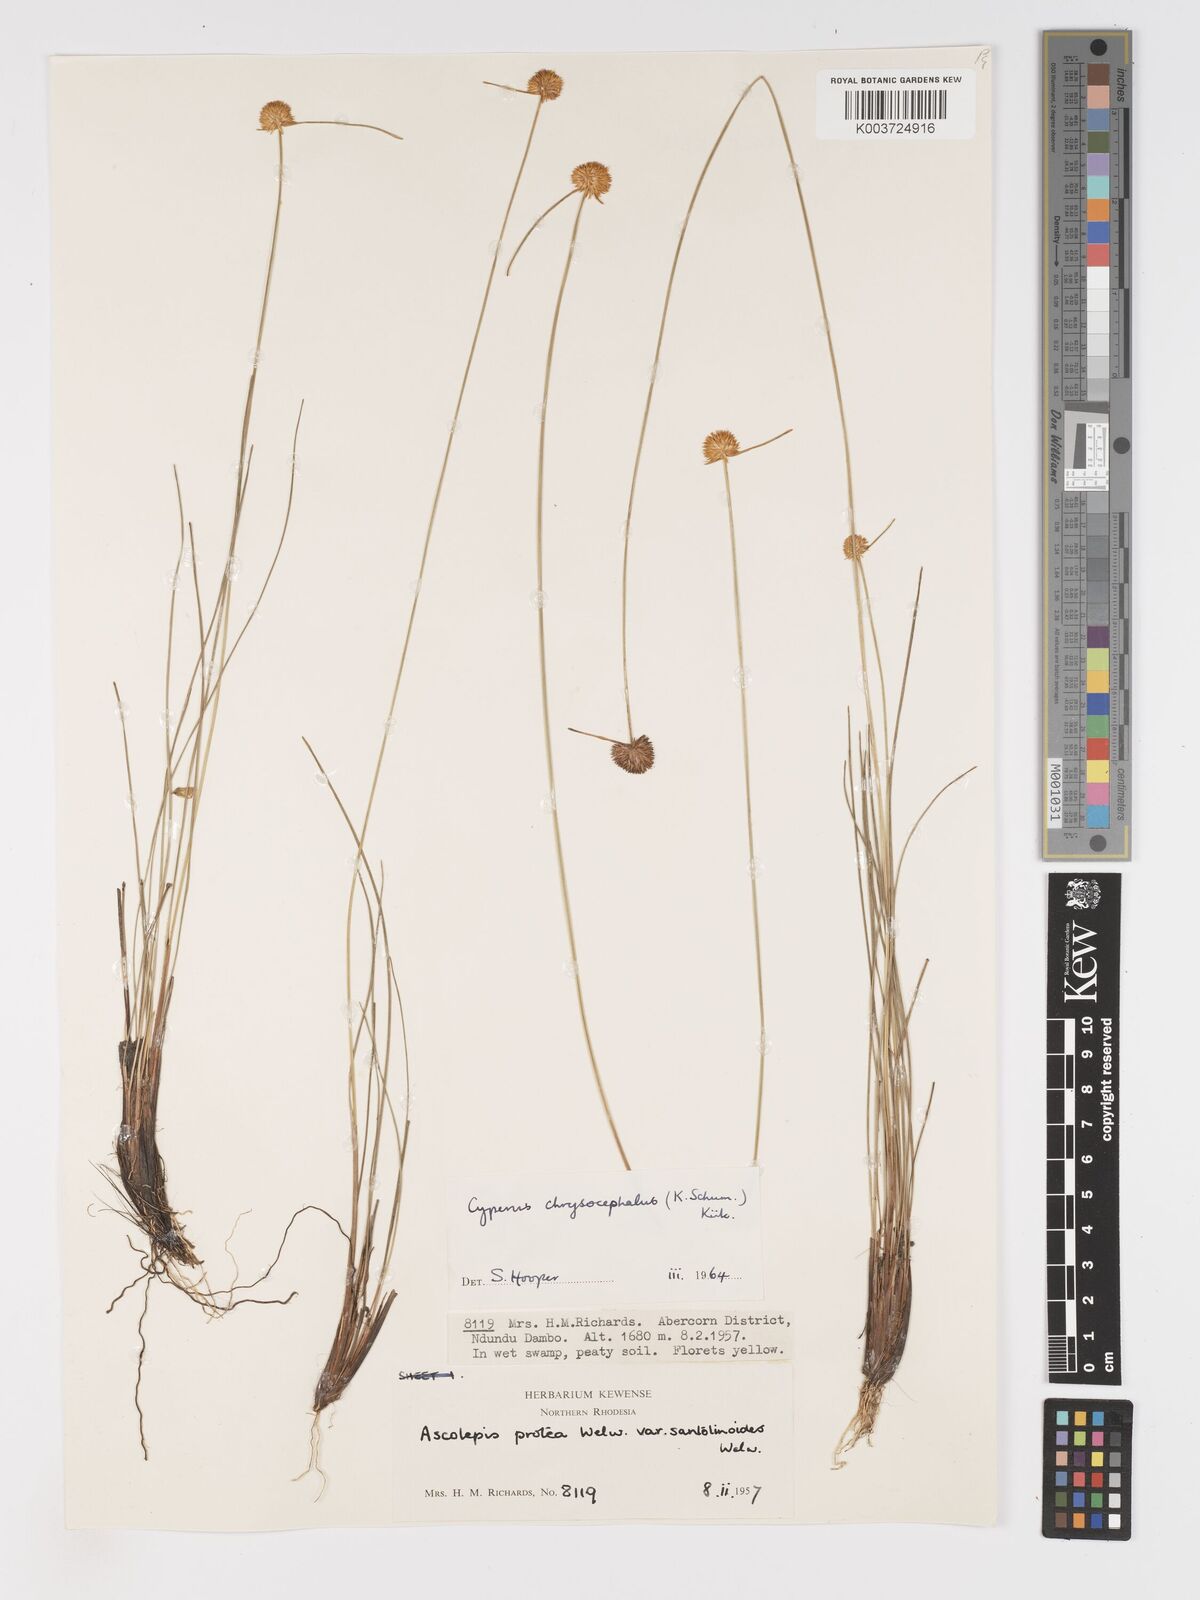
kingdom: Plantae
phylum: Tracheophyta
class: Liliopsida
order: Poales
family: Cyperaceae
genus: Cyperus
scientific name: Cyperus chrysocephalus
